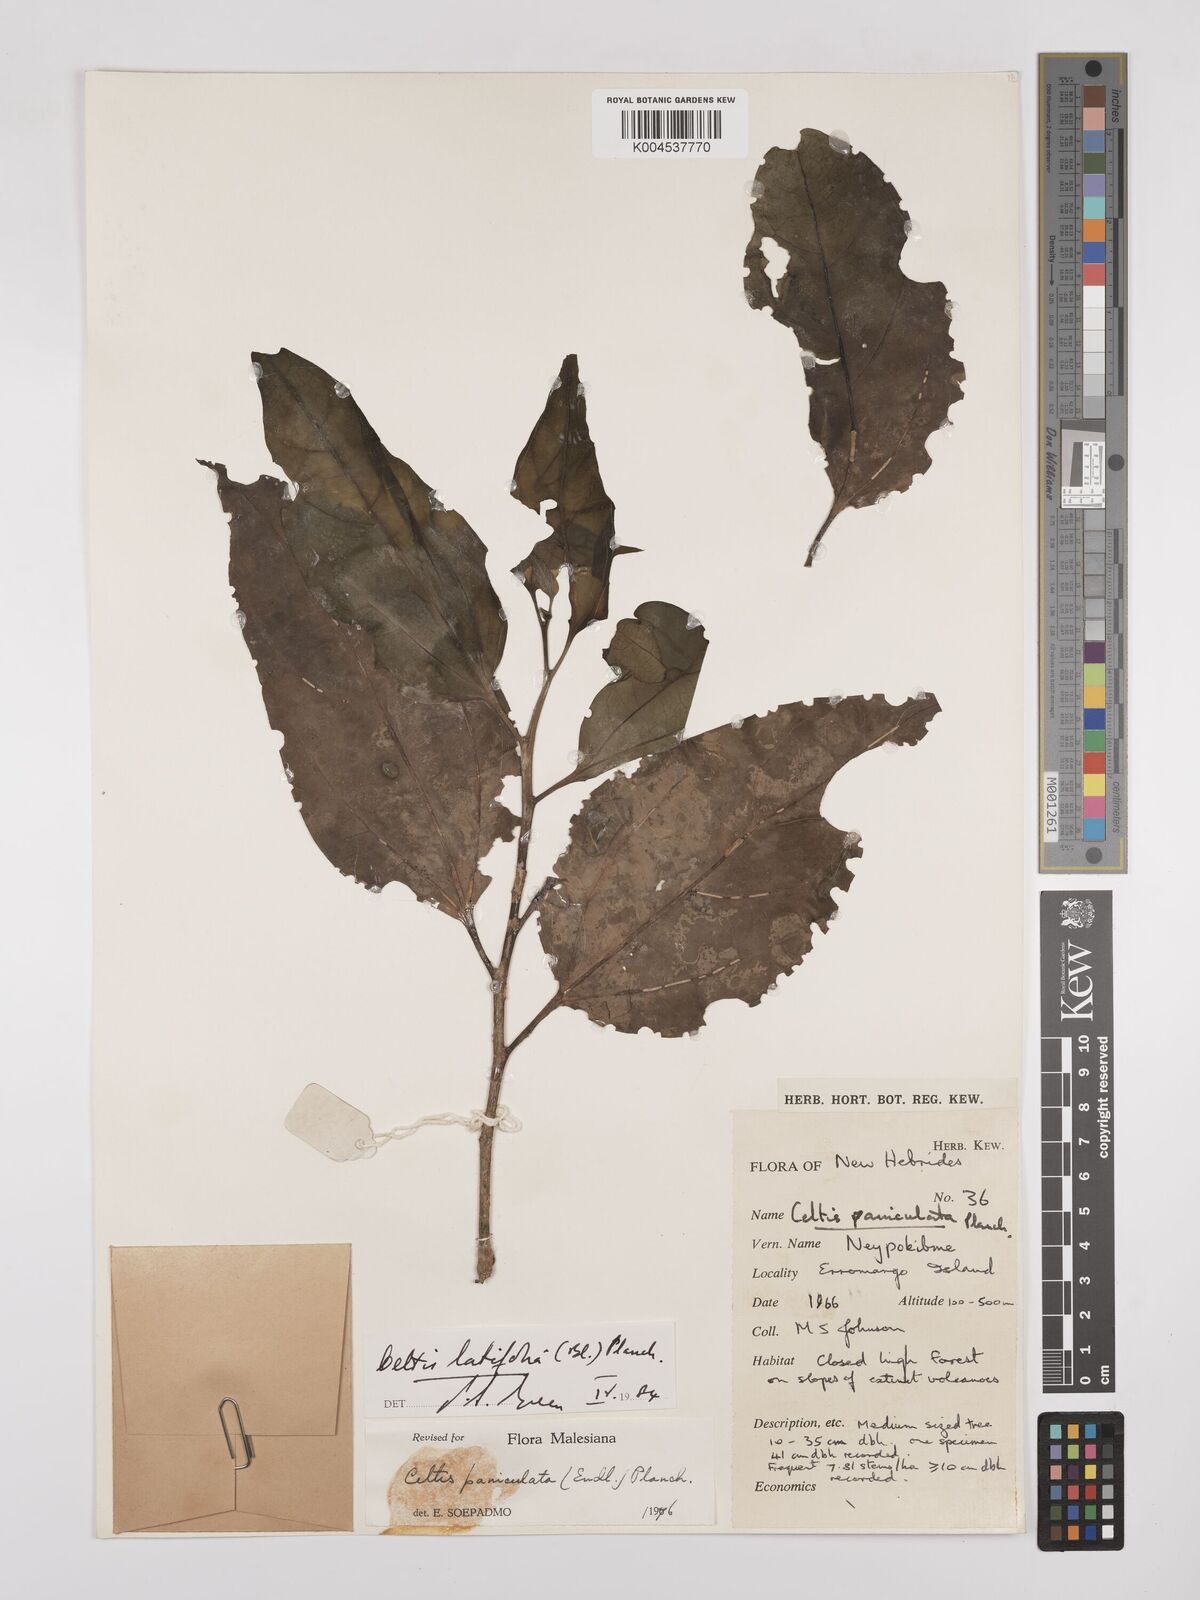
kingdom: Plantae
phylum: Tracheophyta
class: Magnoliopsida
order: Rosales
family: Cannabaceae
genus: Celtis
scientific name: Celtis latifolia
